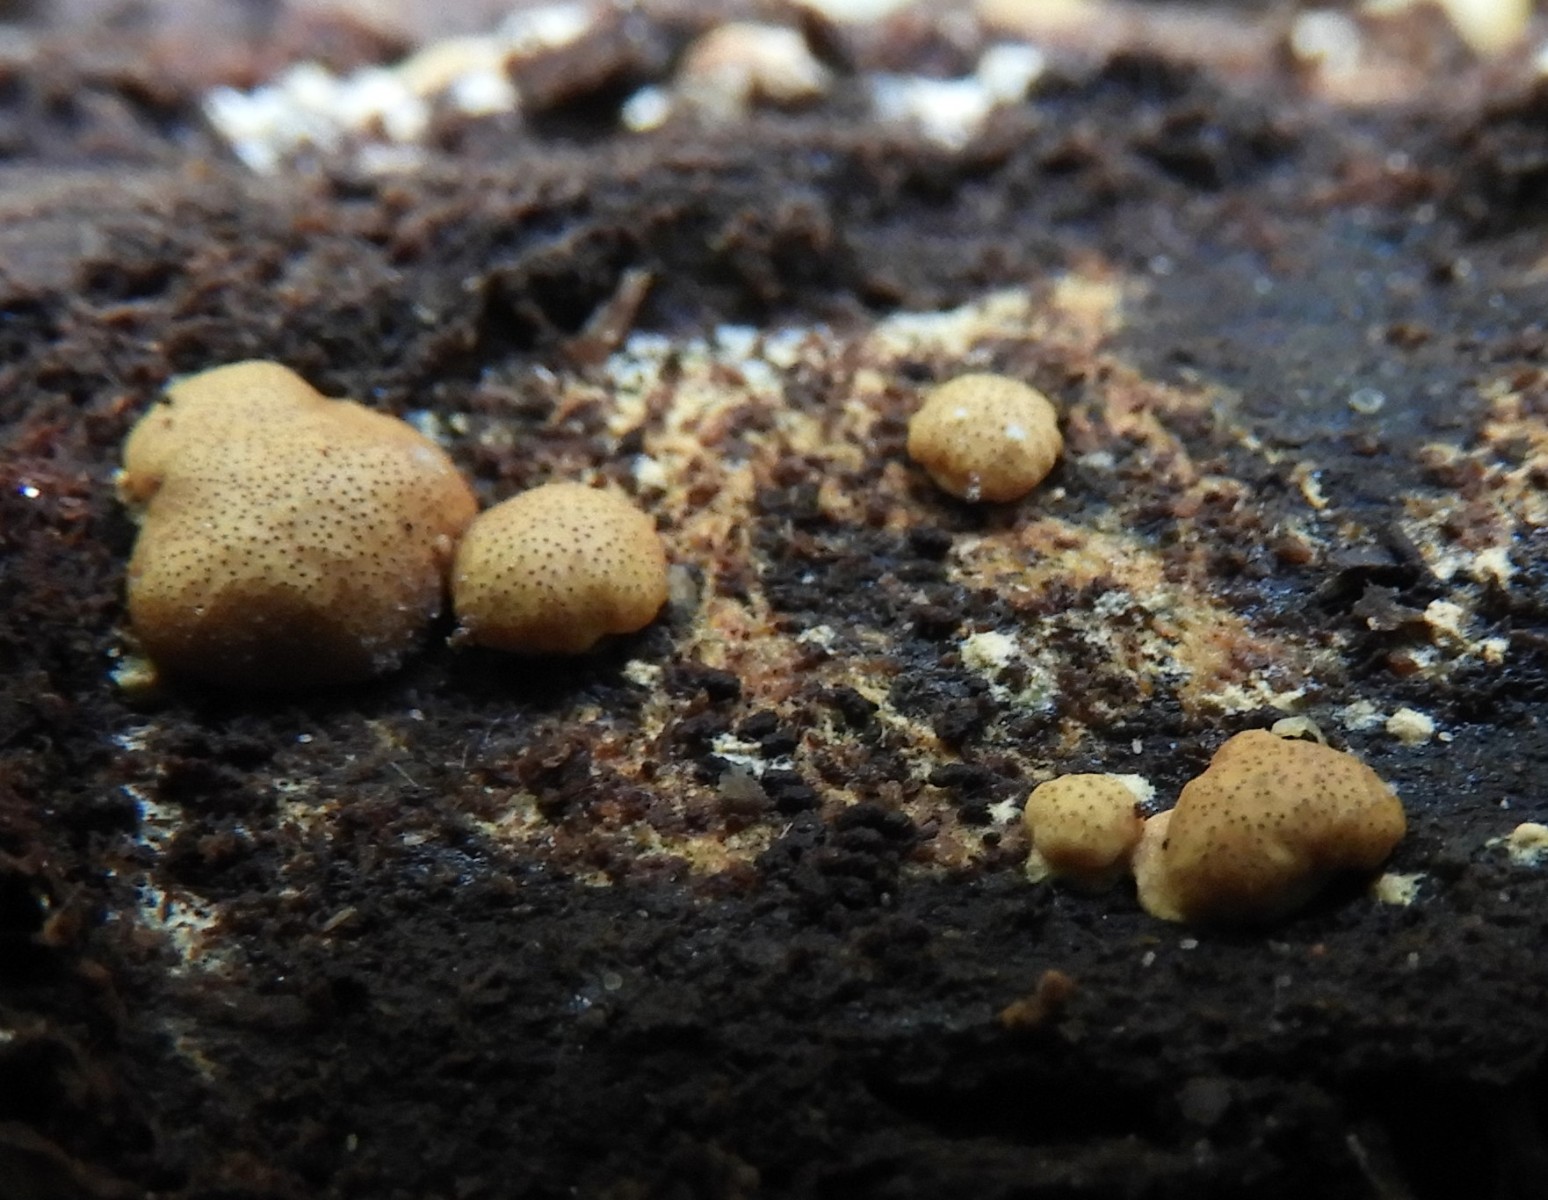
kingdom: Fungi
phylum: Ascomycota
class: Sordariomycetes
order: Hypocreales
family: Hypocreaceae
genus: Trichoderma
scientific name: Trichoderma europaeum
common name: rosabrun kødkerne
